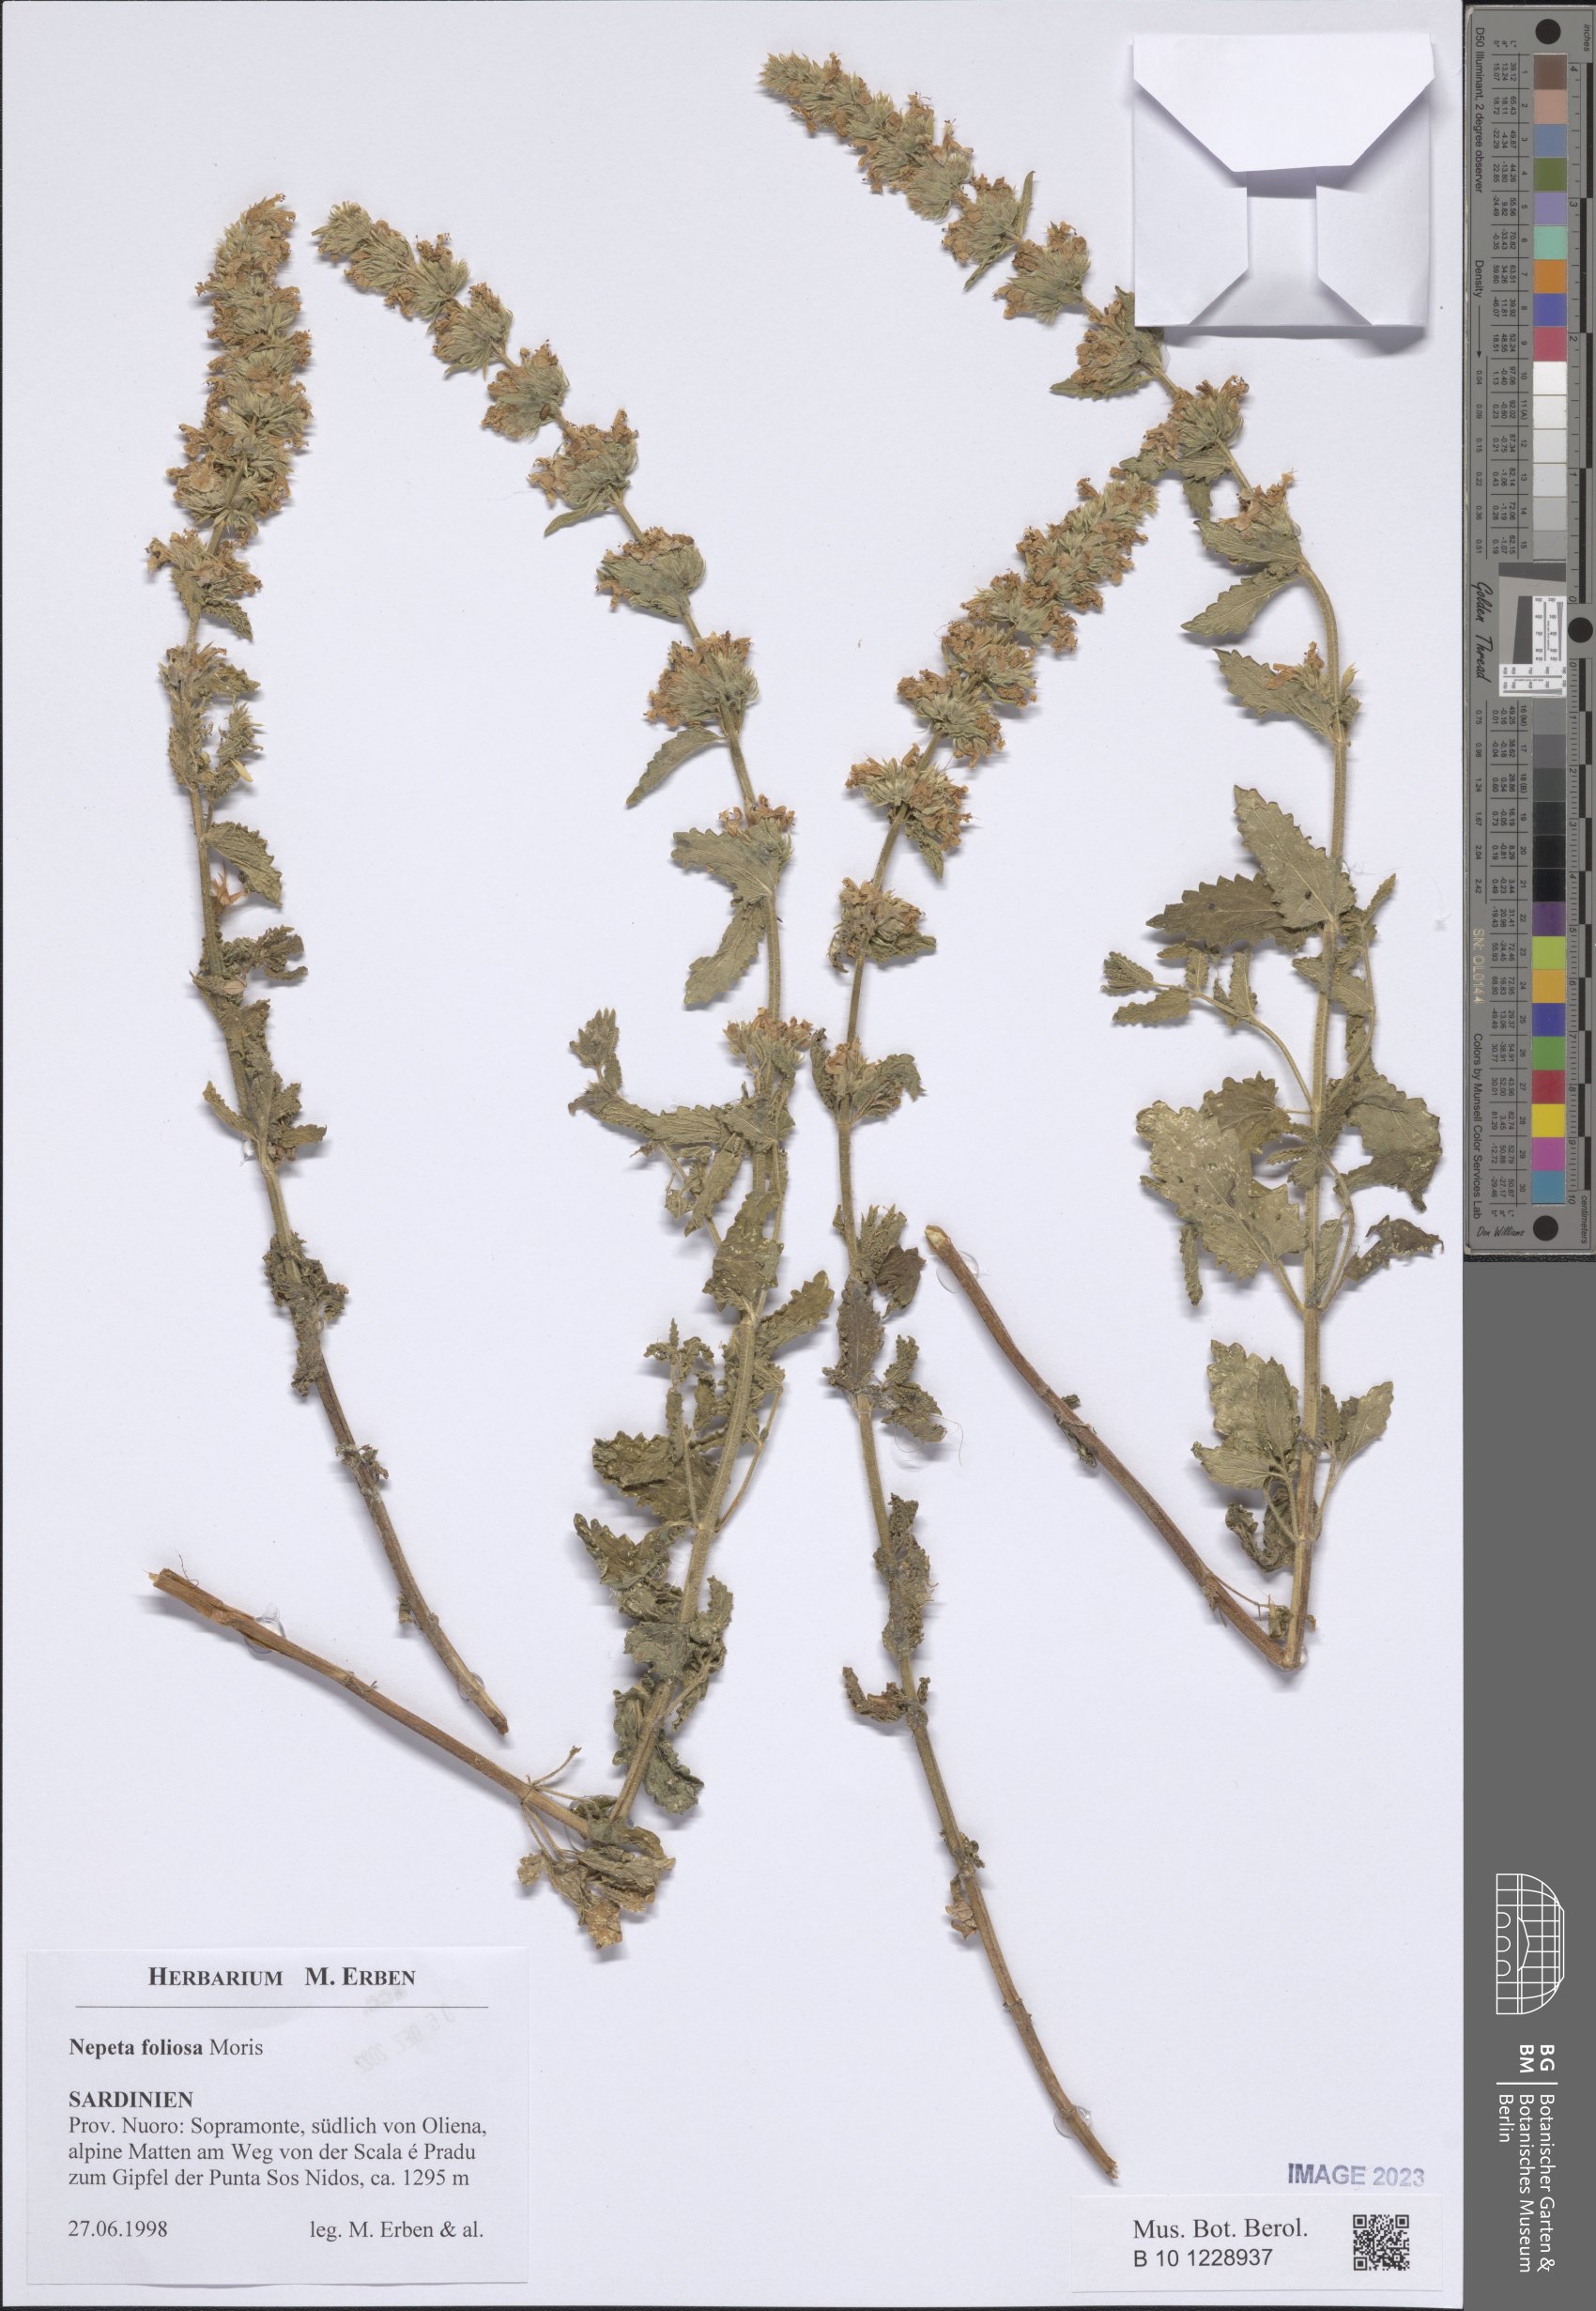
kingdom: Plantae
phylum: Tracheophyta
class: Magnoliopsida
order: Lamiales
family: Lamiaceae
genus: Nepeta
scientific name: Nepeta foliosa
